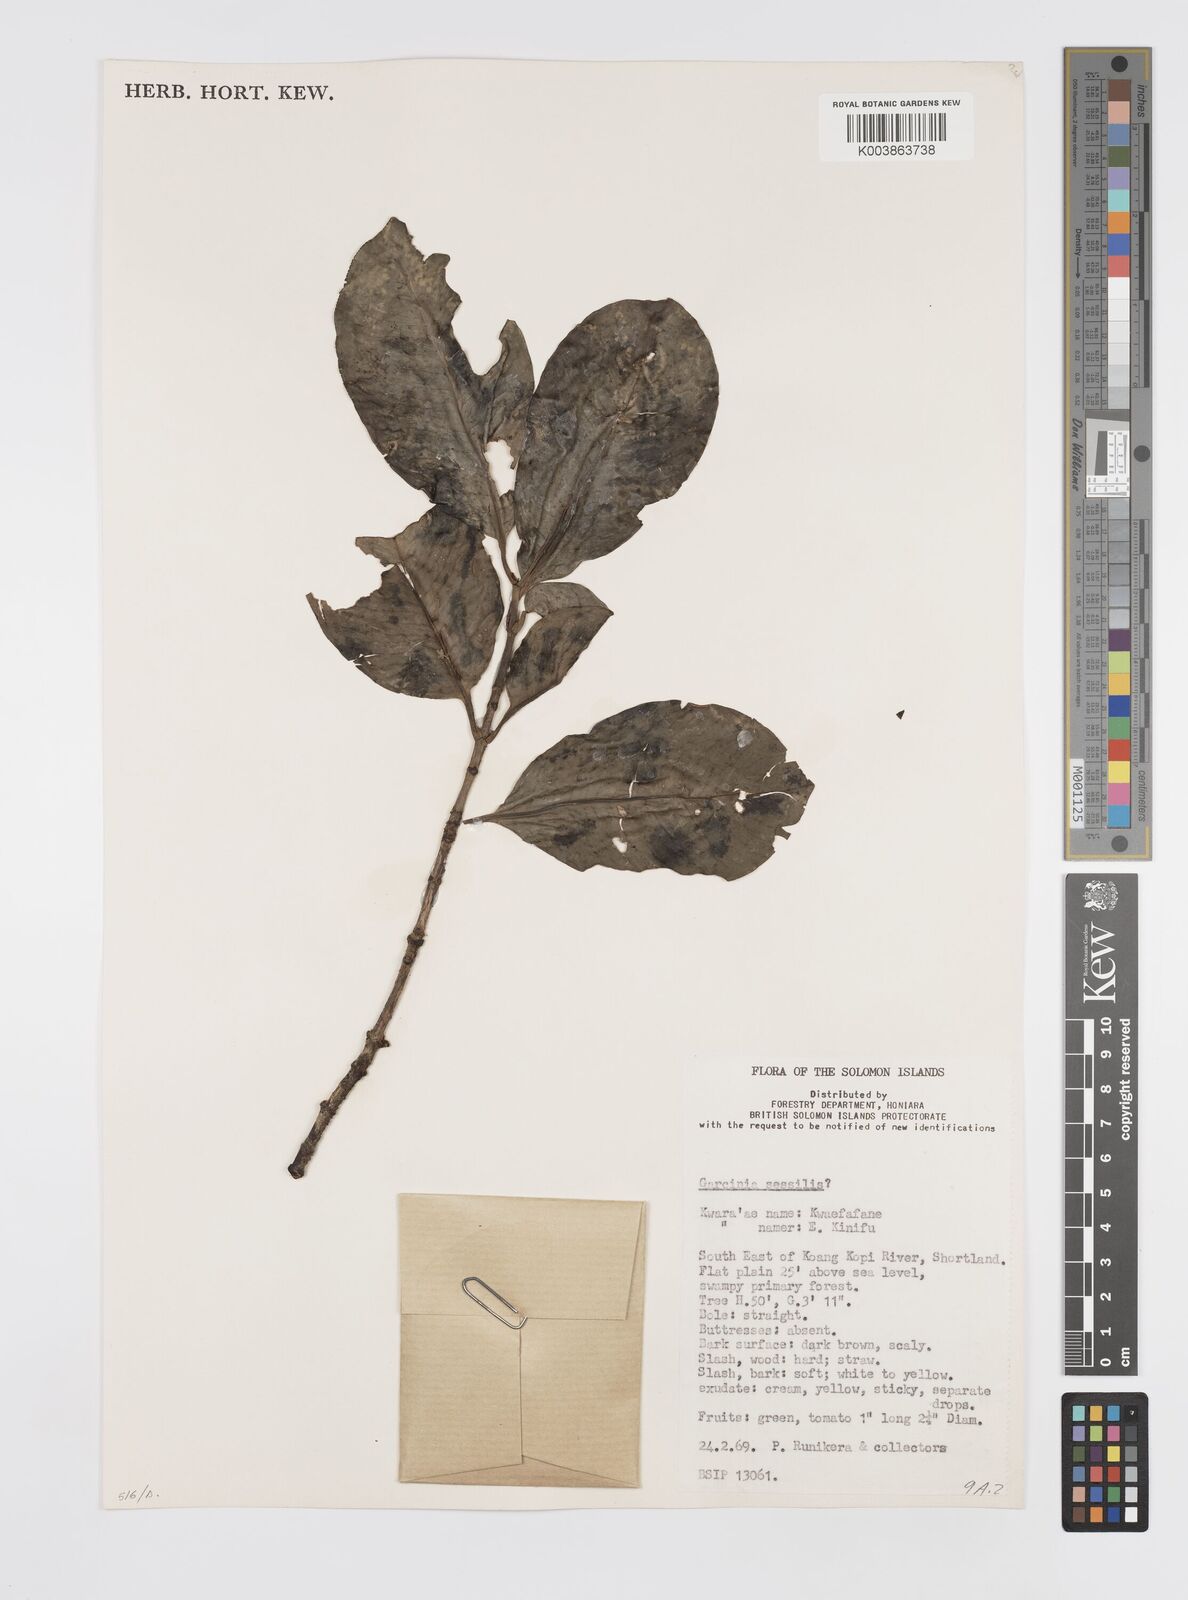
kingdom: Plantae
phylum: Tracheophyta
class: Magnoliopsida
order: Malpighiales
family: Clusiaceae
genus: Garcinia
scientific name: Garcinia sessilis
